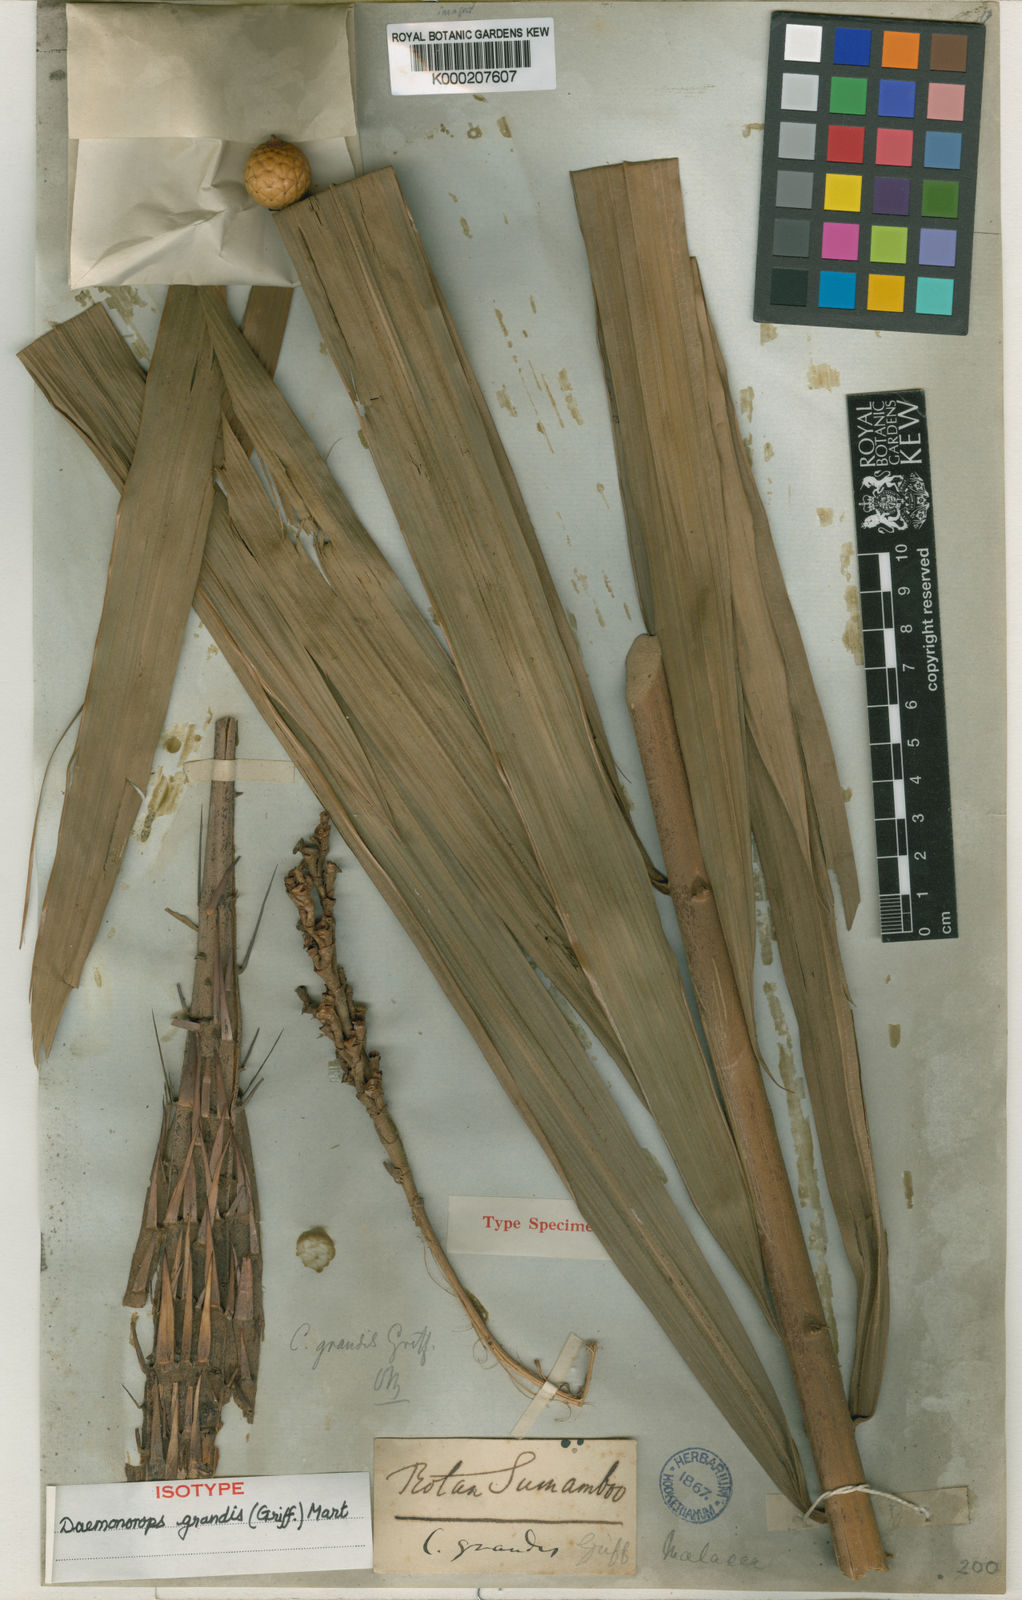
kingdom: Plantae
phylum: Tracheophyta
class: Liliopsida
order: Arecales
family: Arecaceae
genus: Calamus
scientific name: Calamus melanochaetes
